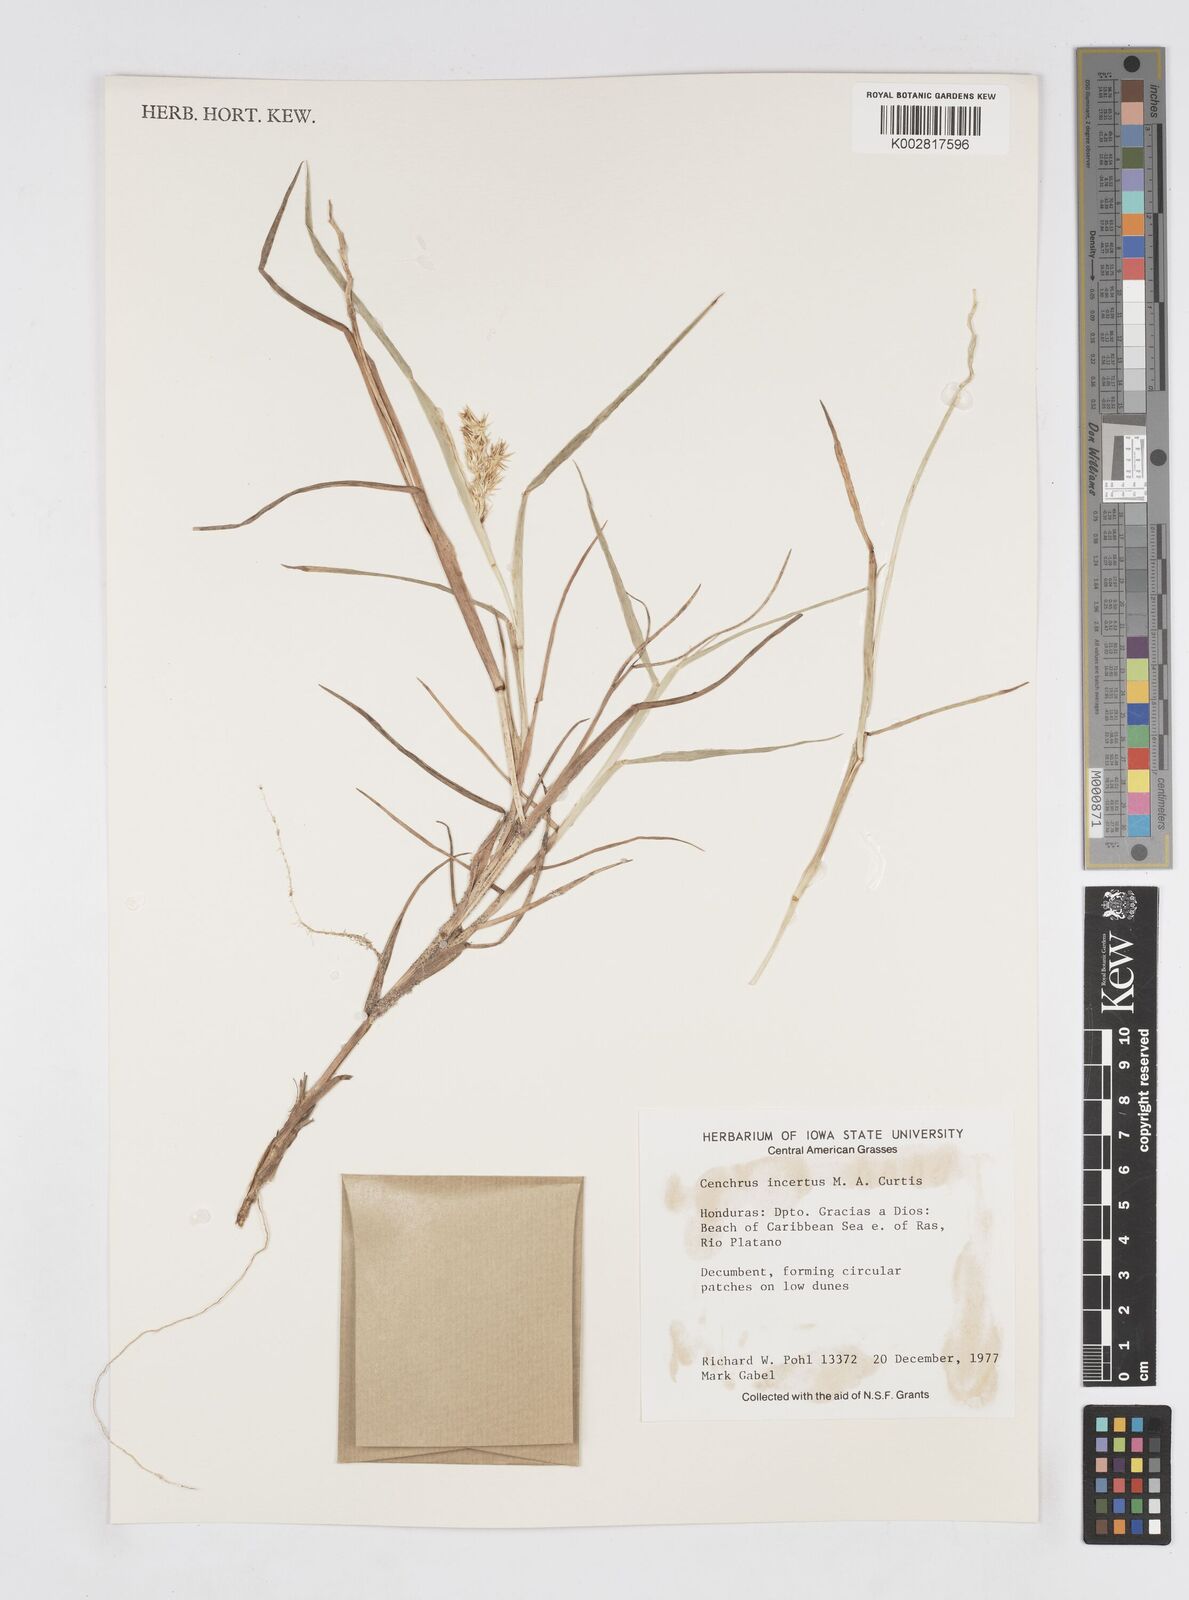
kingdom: Plantae
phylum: Tracheophyta
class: Liliopsida
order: Poales
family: Poaceae
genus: Cenchrus
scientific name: Cenchrus spinifex
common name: Coast sandbur
